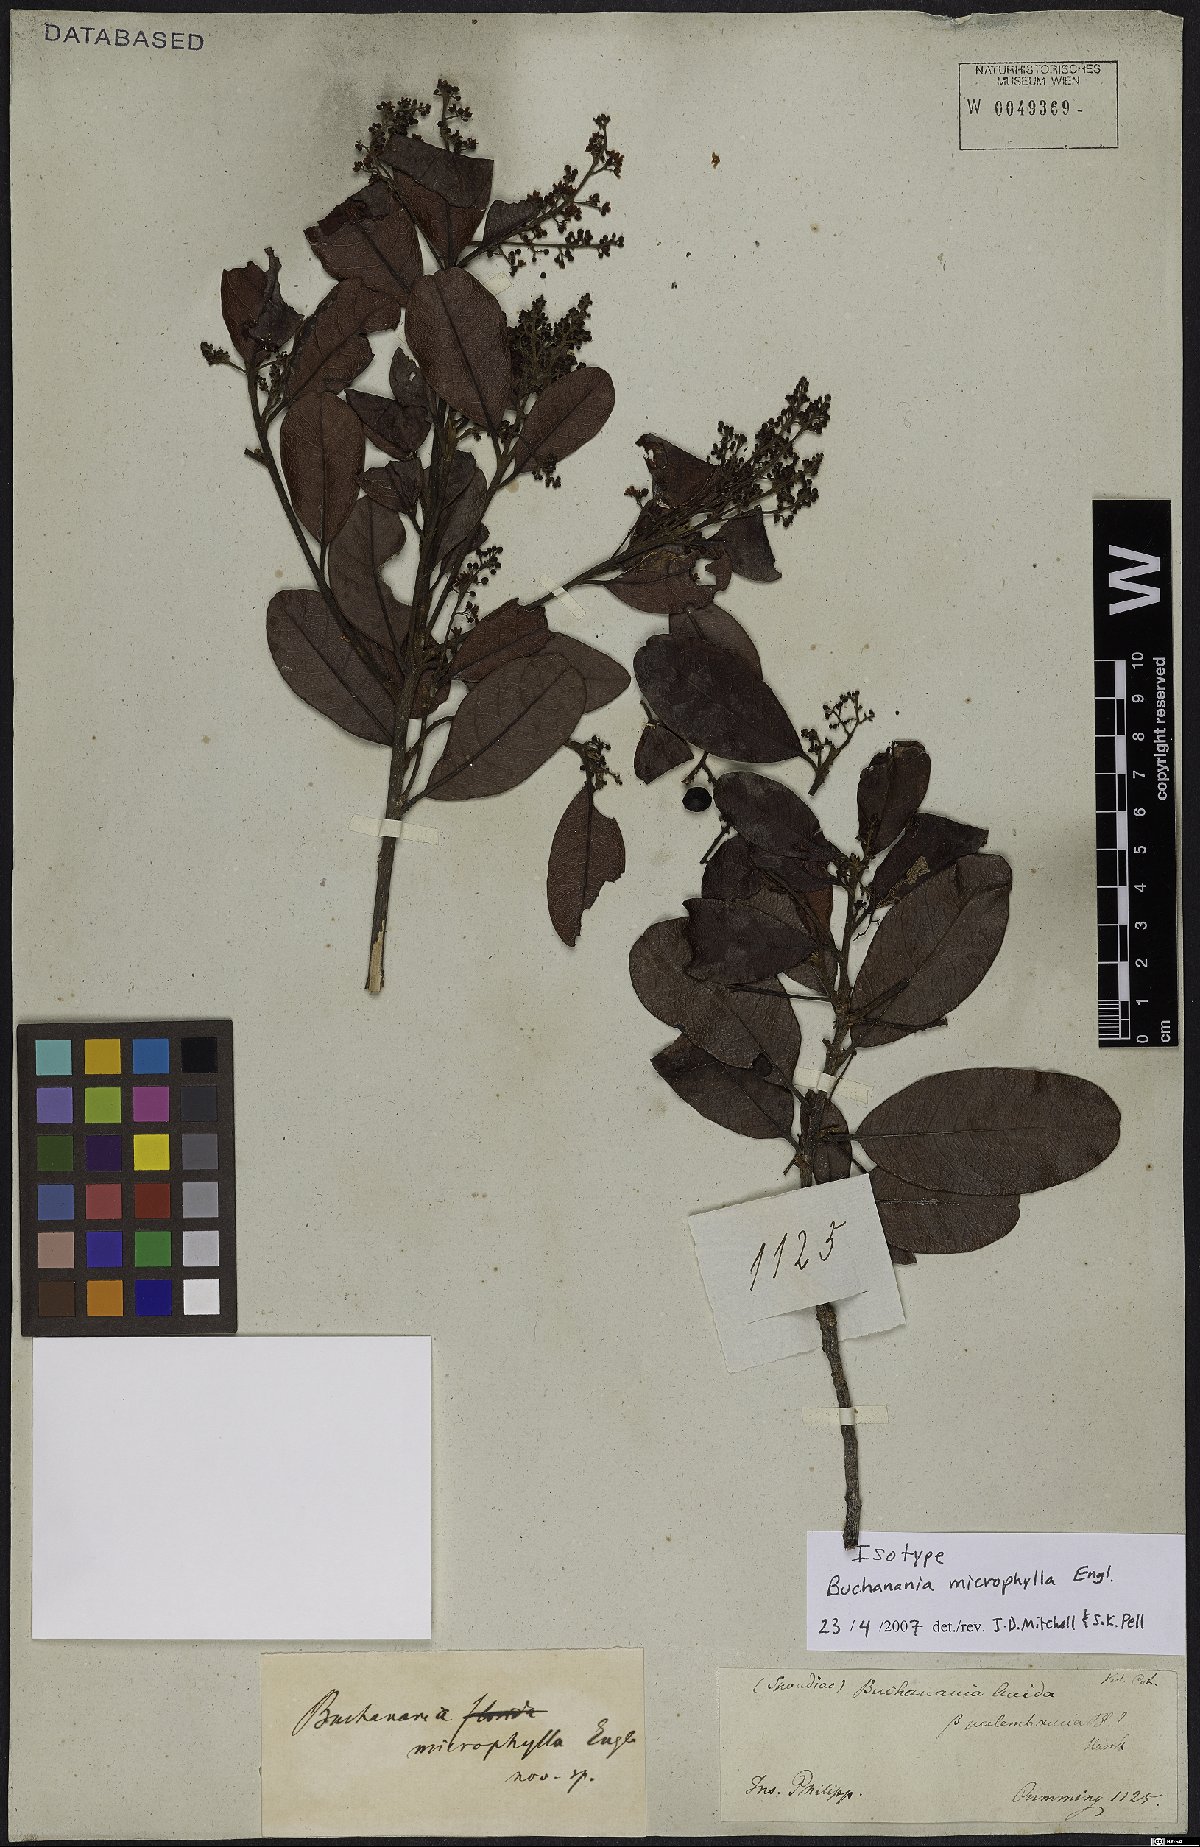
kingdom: Plantae
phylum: Tracheophyta
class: Magnoliopsida
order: Sapindales
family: Anacardiaceae
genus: Buchanania
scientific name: Buchanania microphylla
